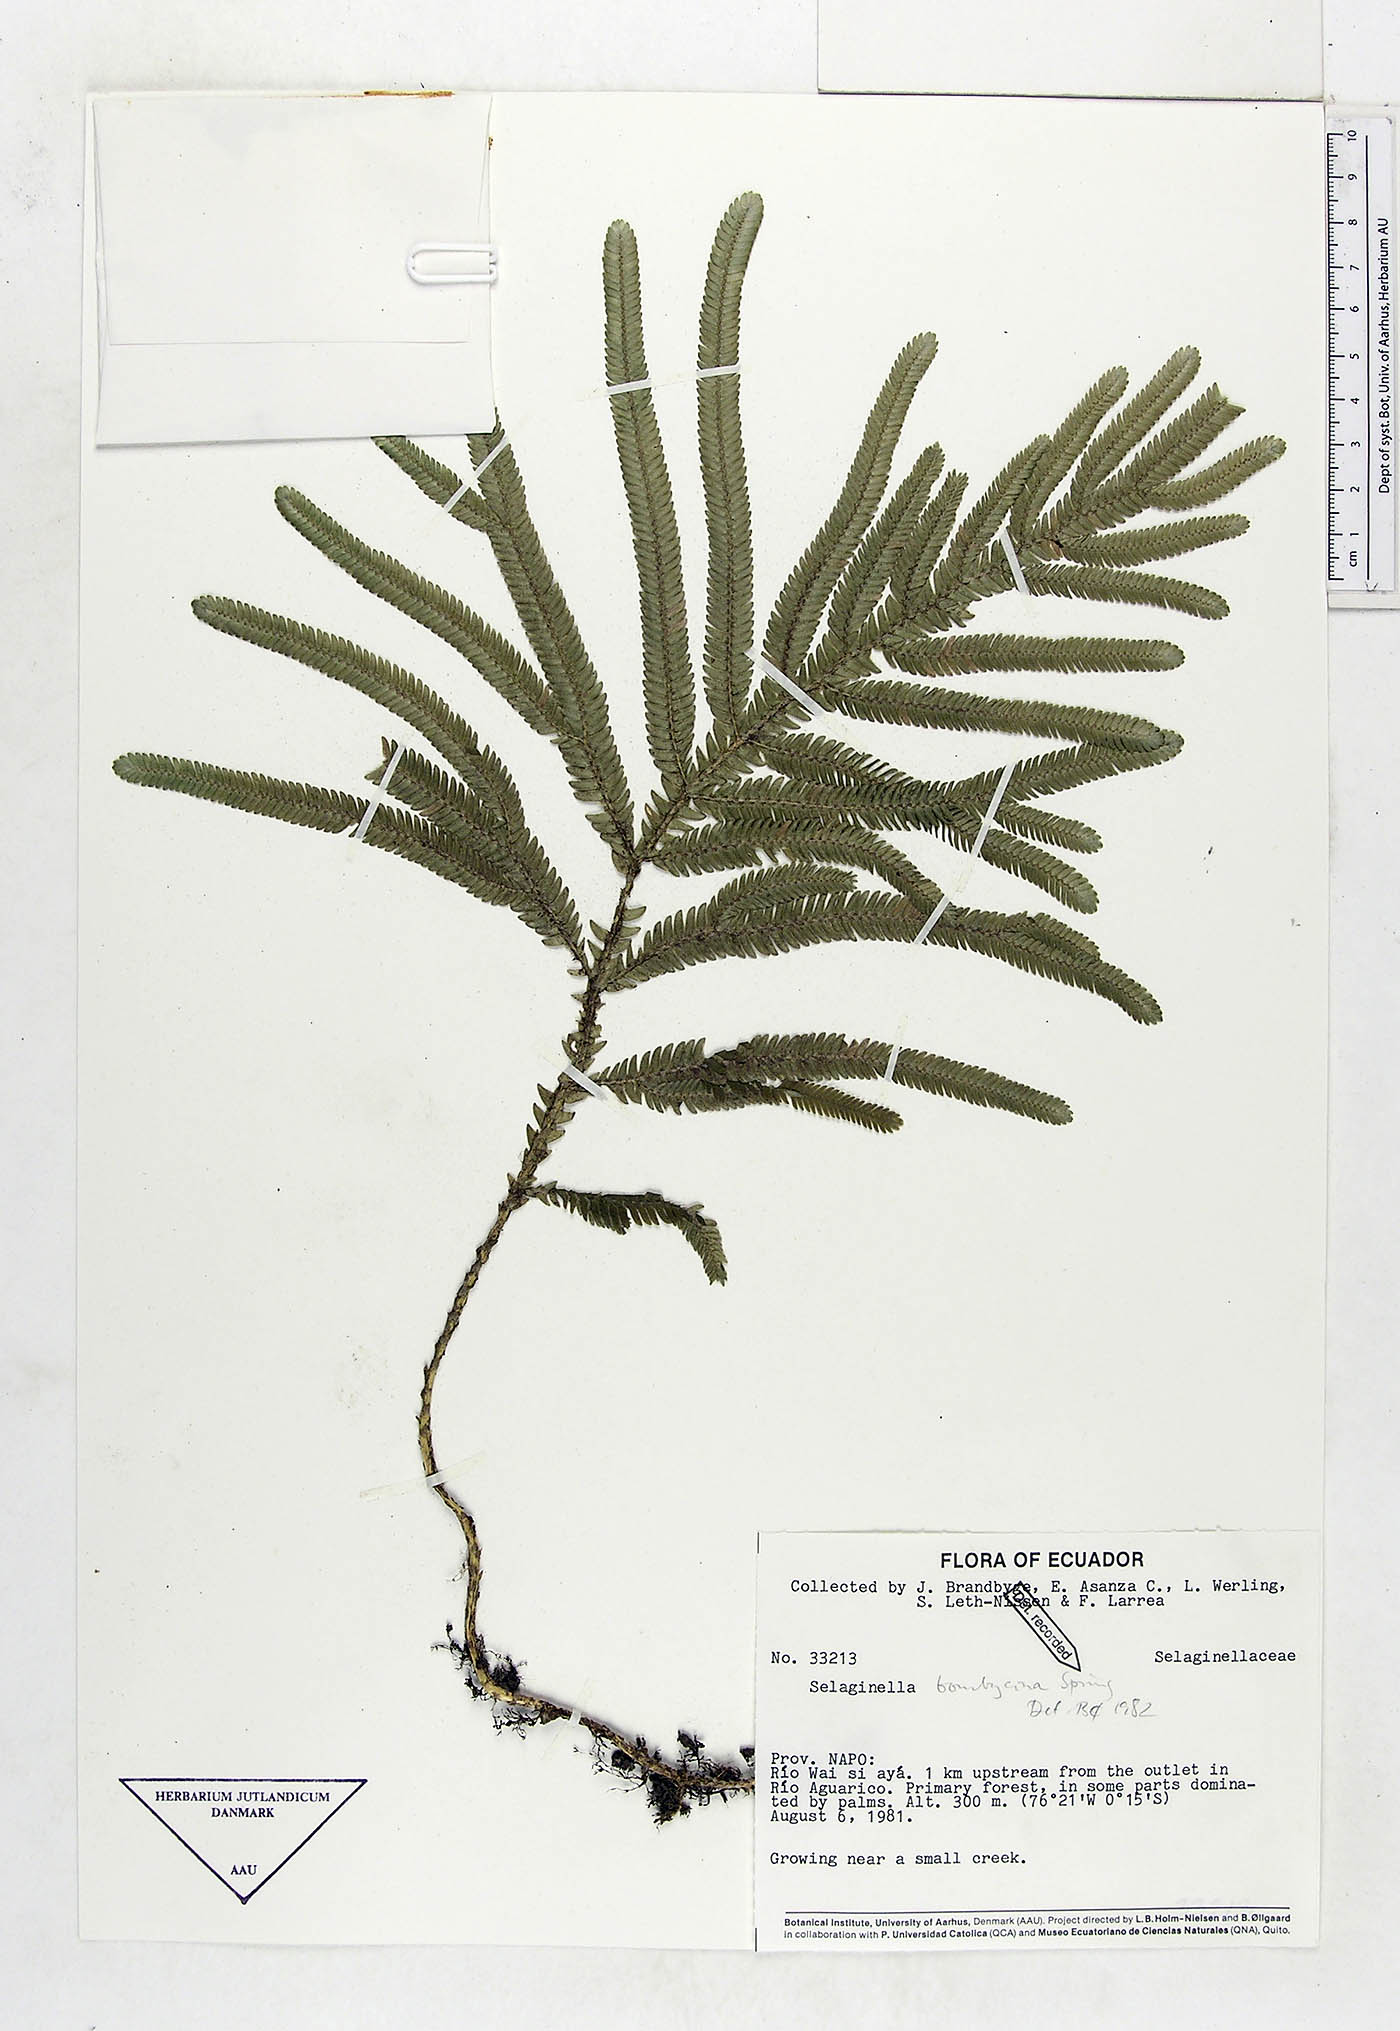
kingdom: Plantae
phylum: Tracheophyta
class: Lycopodiopsida
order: Selaginellales
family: Selaginellaceae
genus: Selaginella
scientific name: Selaginella bombycina
